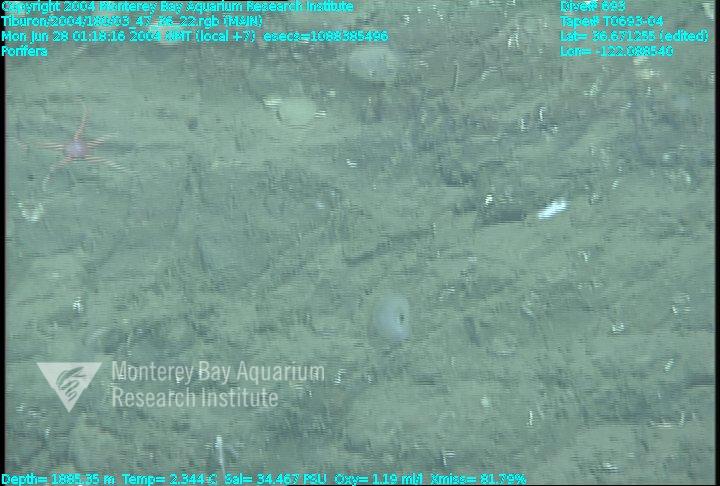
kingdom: Animalia
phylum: Porifera
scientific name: Porifera
